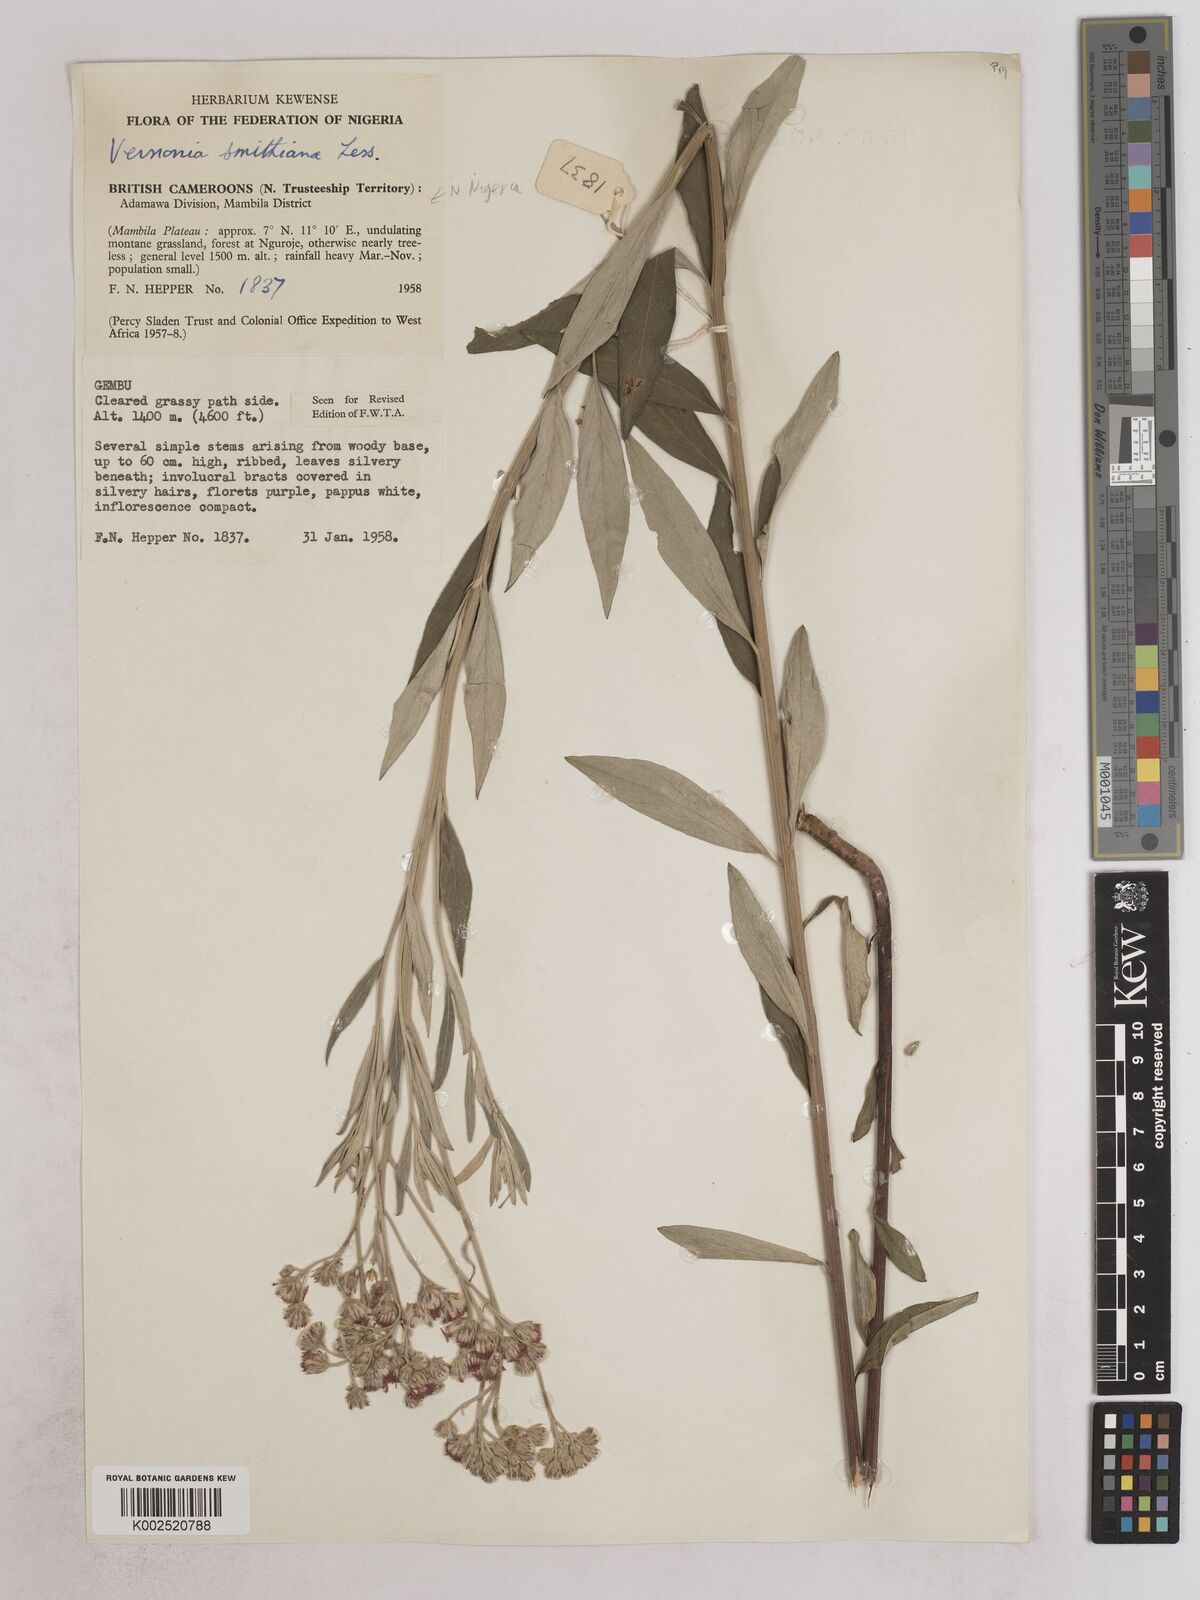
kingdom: Plantae
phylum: Tracheophyta
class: Magnoliopsida
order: Asterales
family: Asteraceae
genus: Hilliardiella
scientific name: Hilliardiella smithiana
